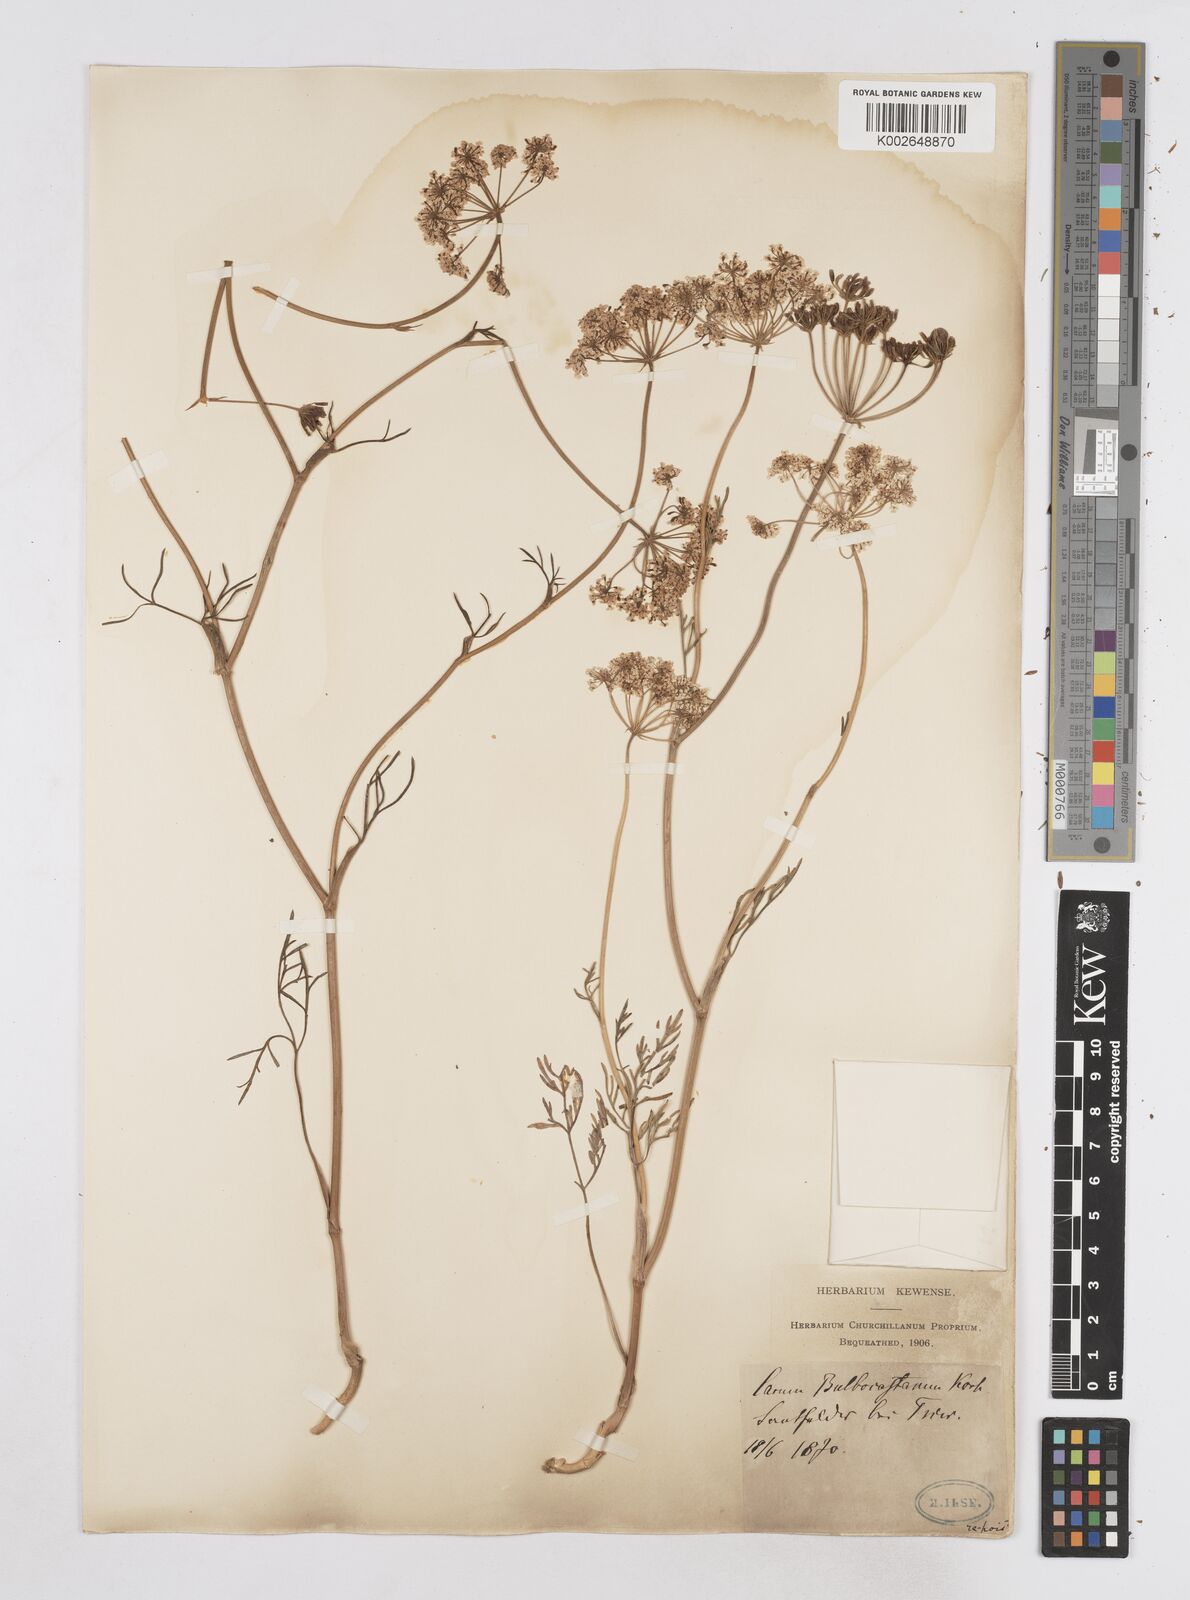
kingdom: Plantae
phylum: Tracheophyta
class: Magnoliopsida
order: Apiales
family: Apiaceae
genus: Bunium
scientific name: Bunium bulbocastanum
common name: Great pignut
